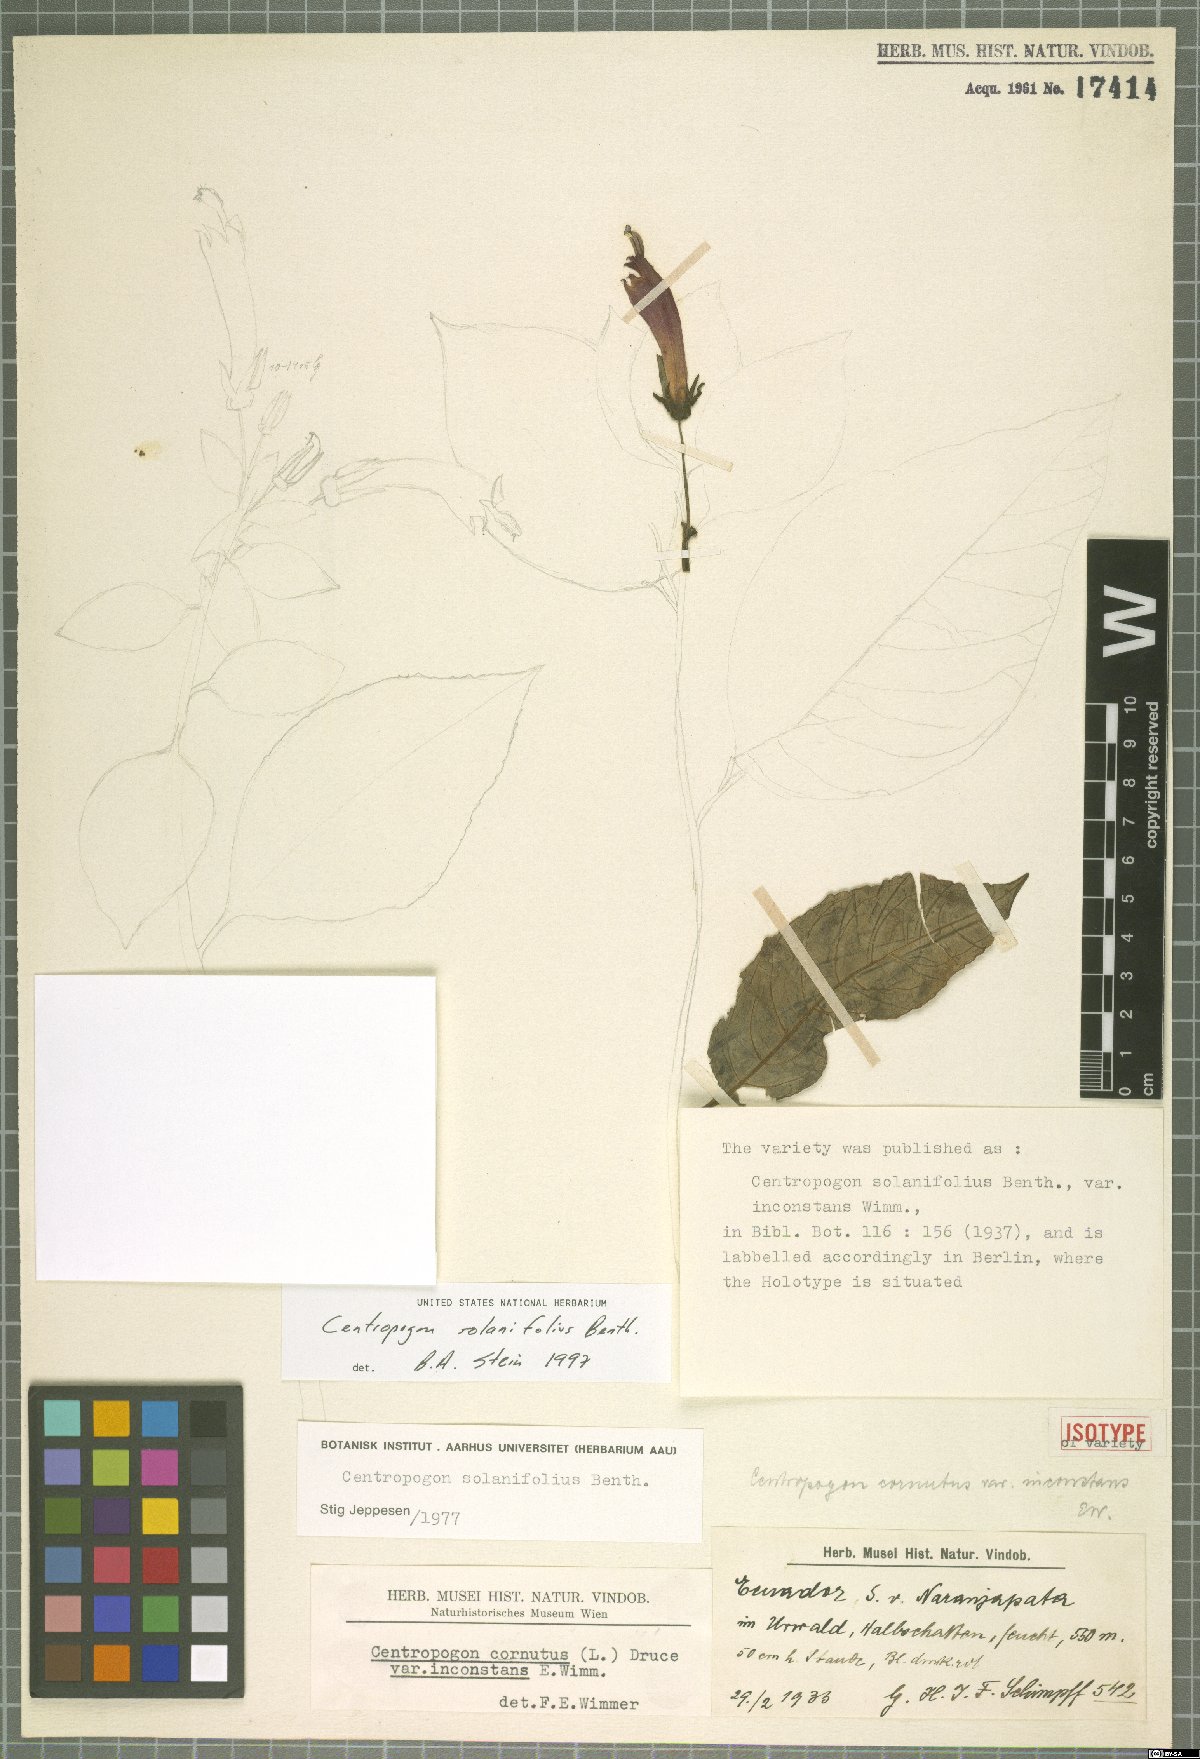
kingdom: Plantae
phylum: Tracheophyta
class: Magnoliopsida
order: Asterales
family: Campanulaceae
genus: Centropogon
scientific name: Centropogon solanifolius
